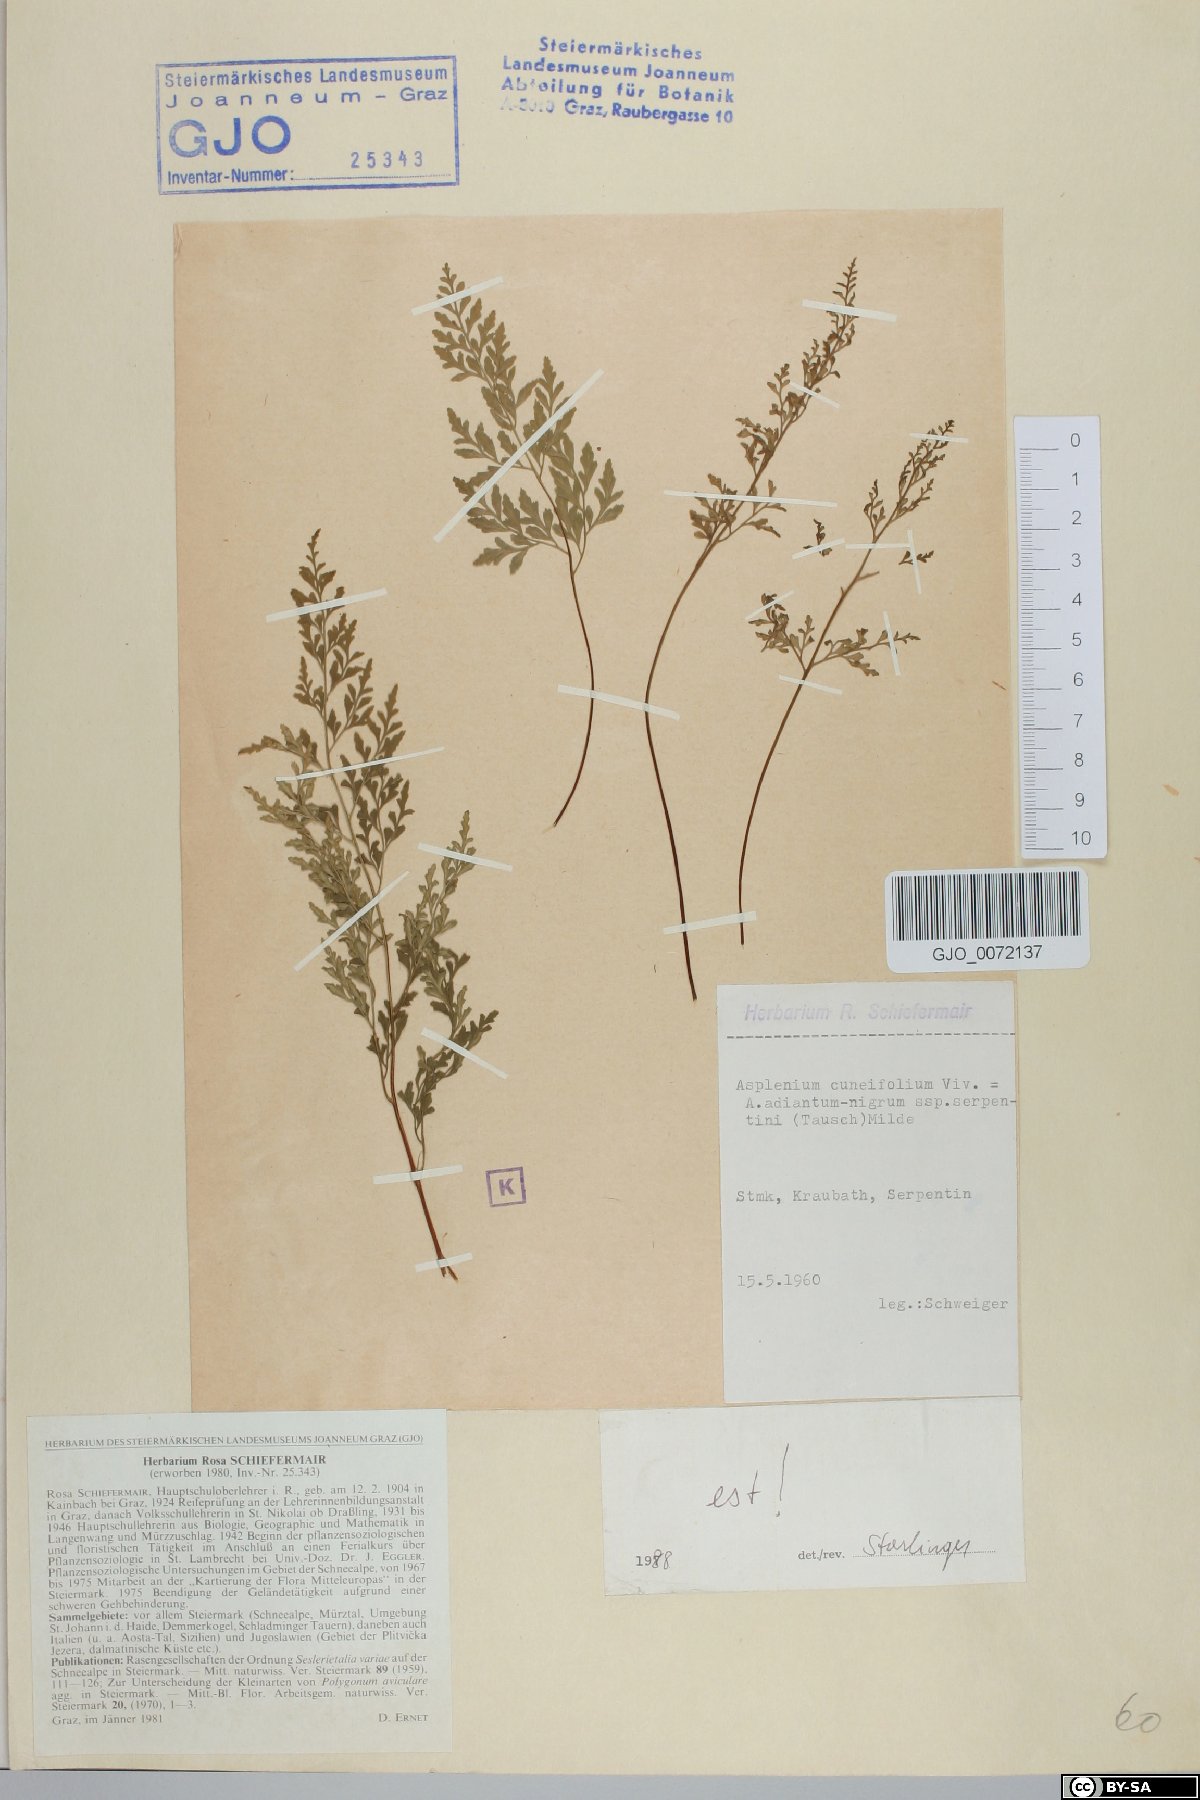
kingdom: Plantae
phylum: Tracheophyta
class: Polypodiopsida
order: Polypodiales
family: Aspleniaceae
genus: Asplenium
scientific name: Asplenium cuneifolium
